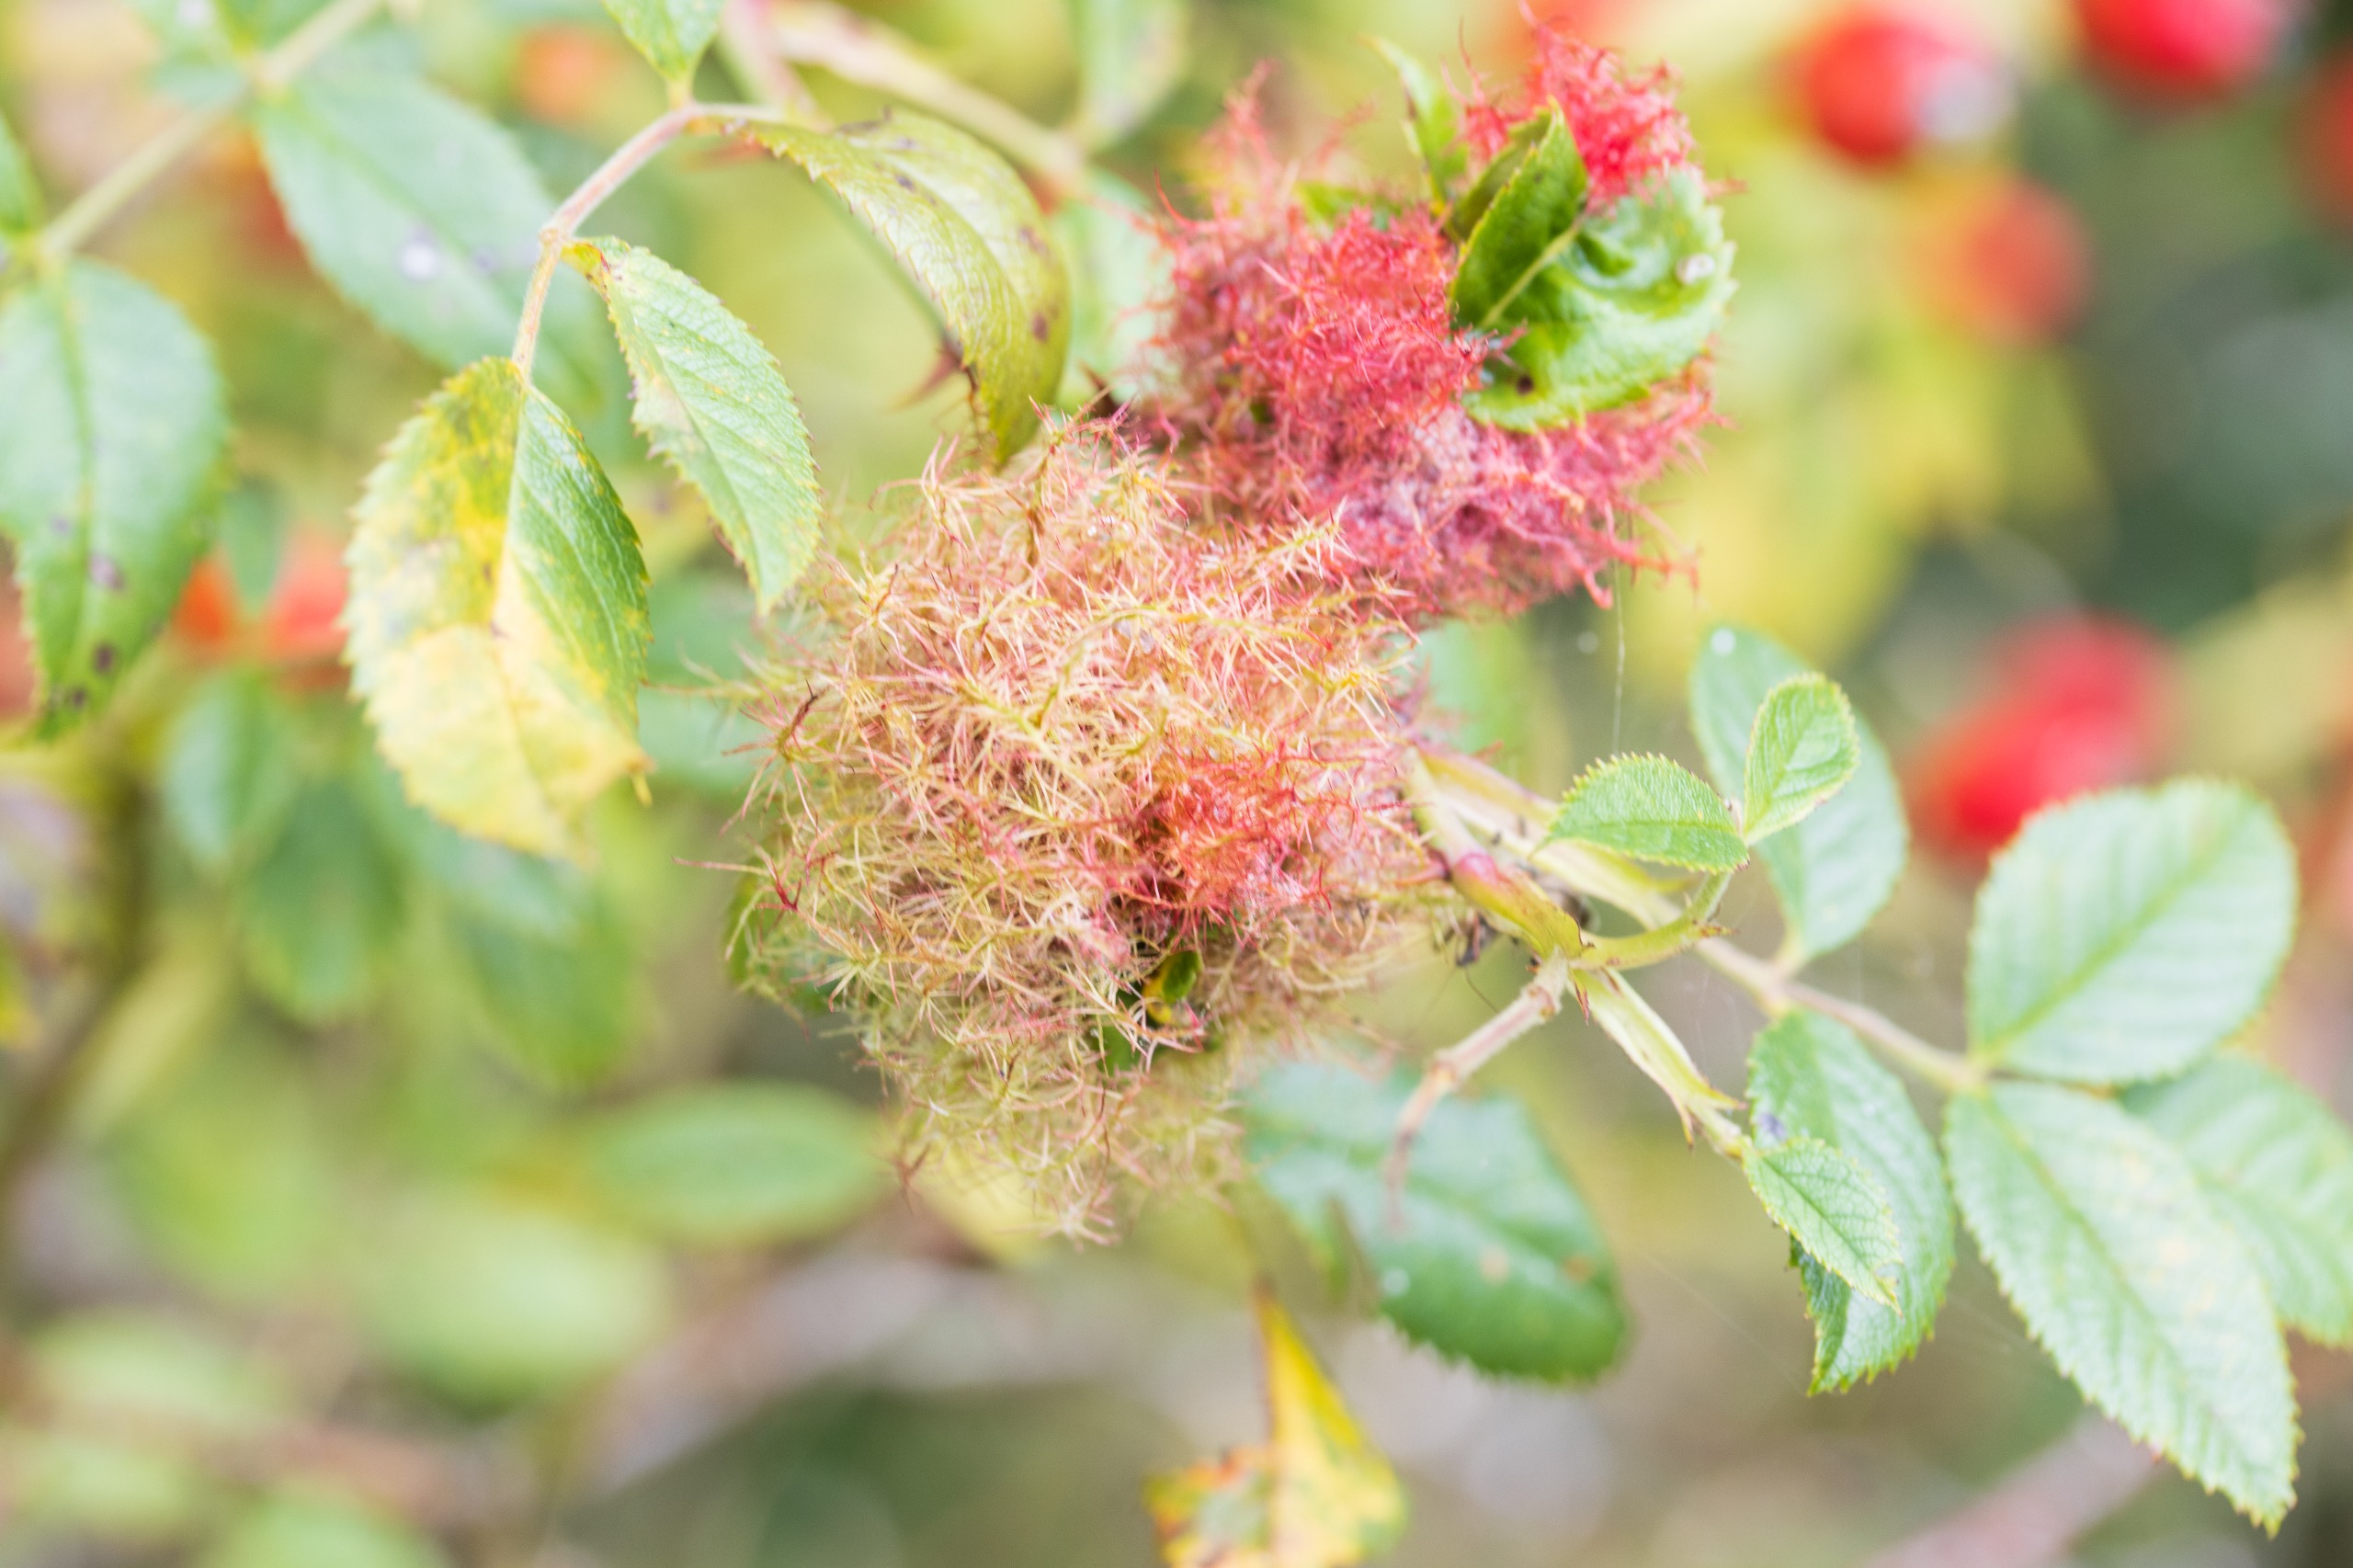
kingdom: Animalia
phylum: Arthropoda
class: Insecta
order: Hymenoptera
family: Cynipidae
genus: Diplolepis
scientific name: Diplolepis rosae
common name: Bedeguargalhveps
